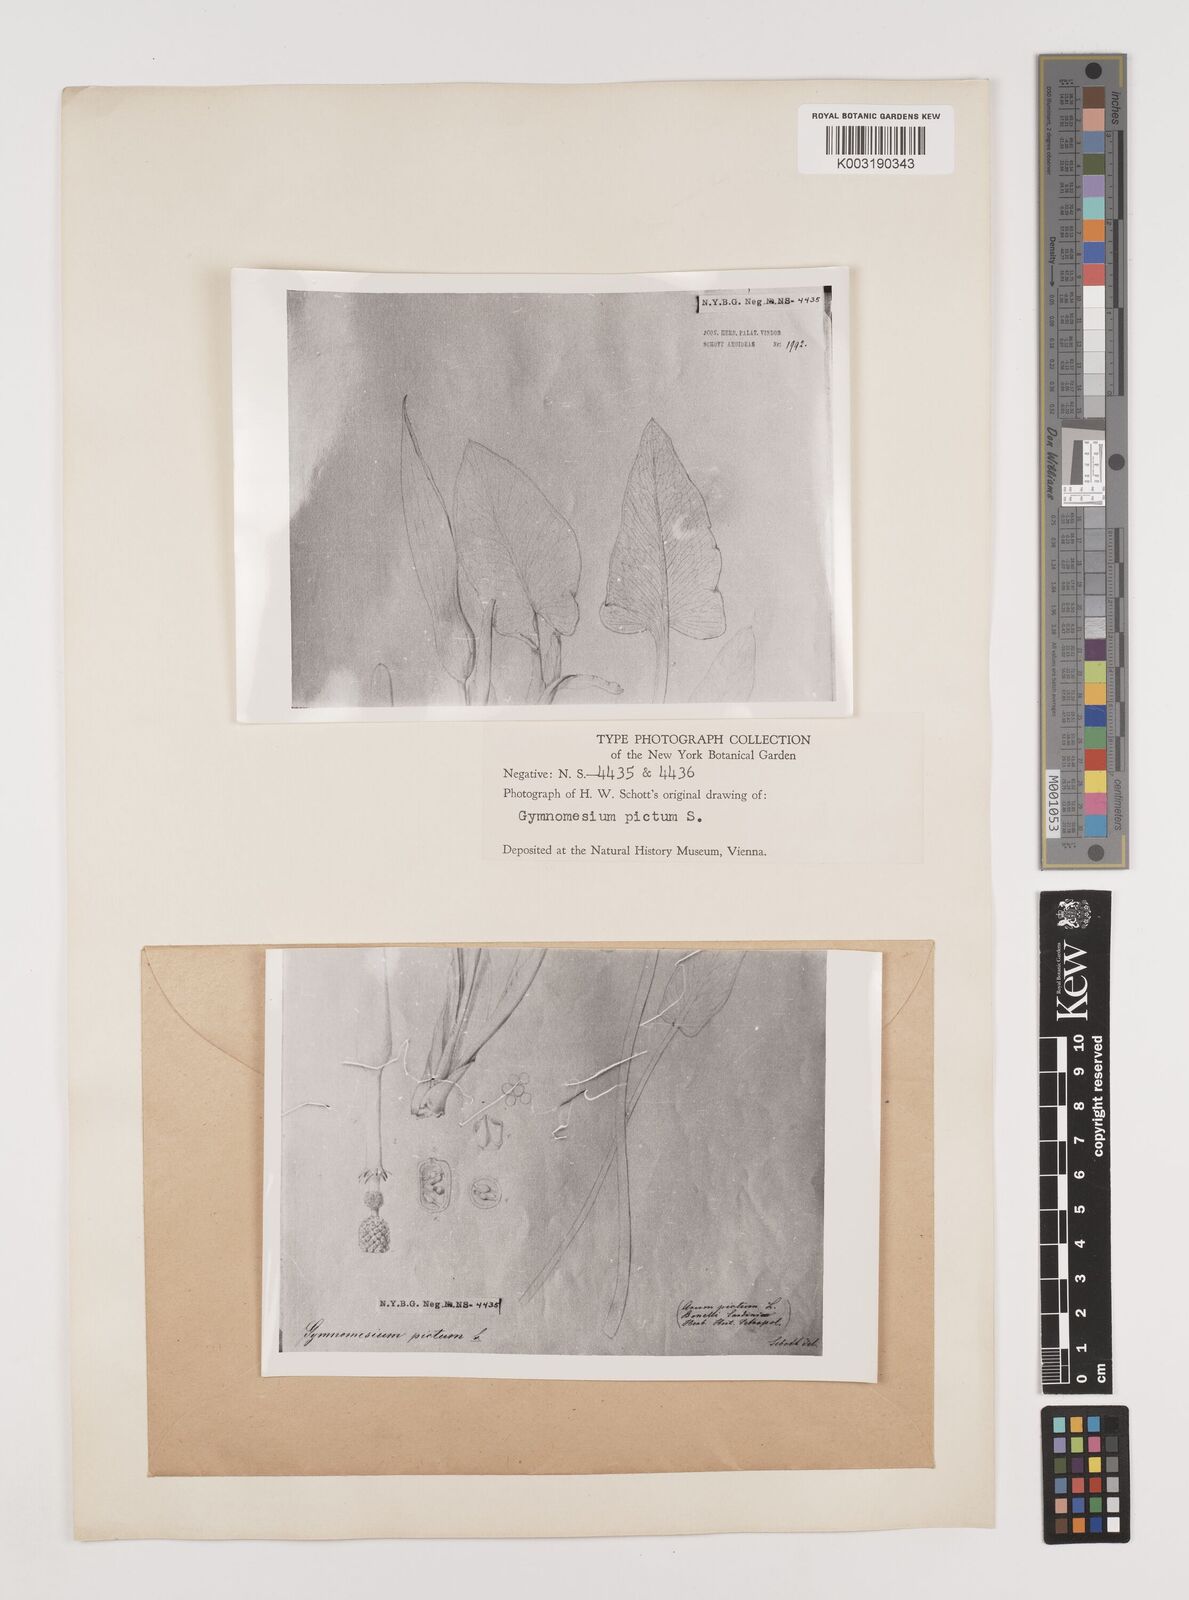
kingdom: Plantae
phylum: Tracheophyta
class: Liliopsida
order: Alismatales
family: Araceae
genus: Arum
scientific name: Arum pictum
